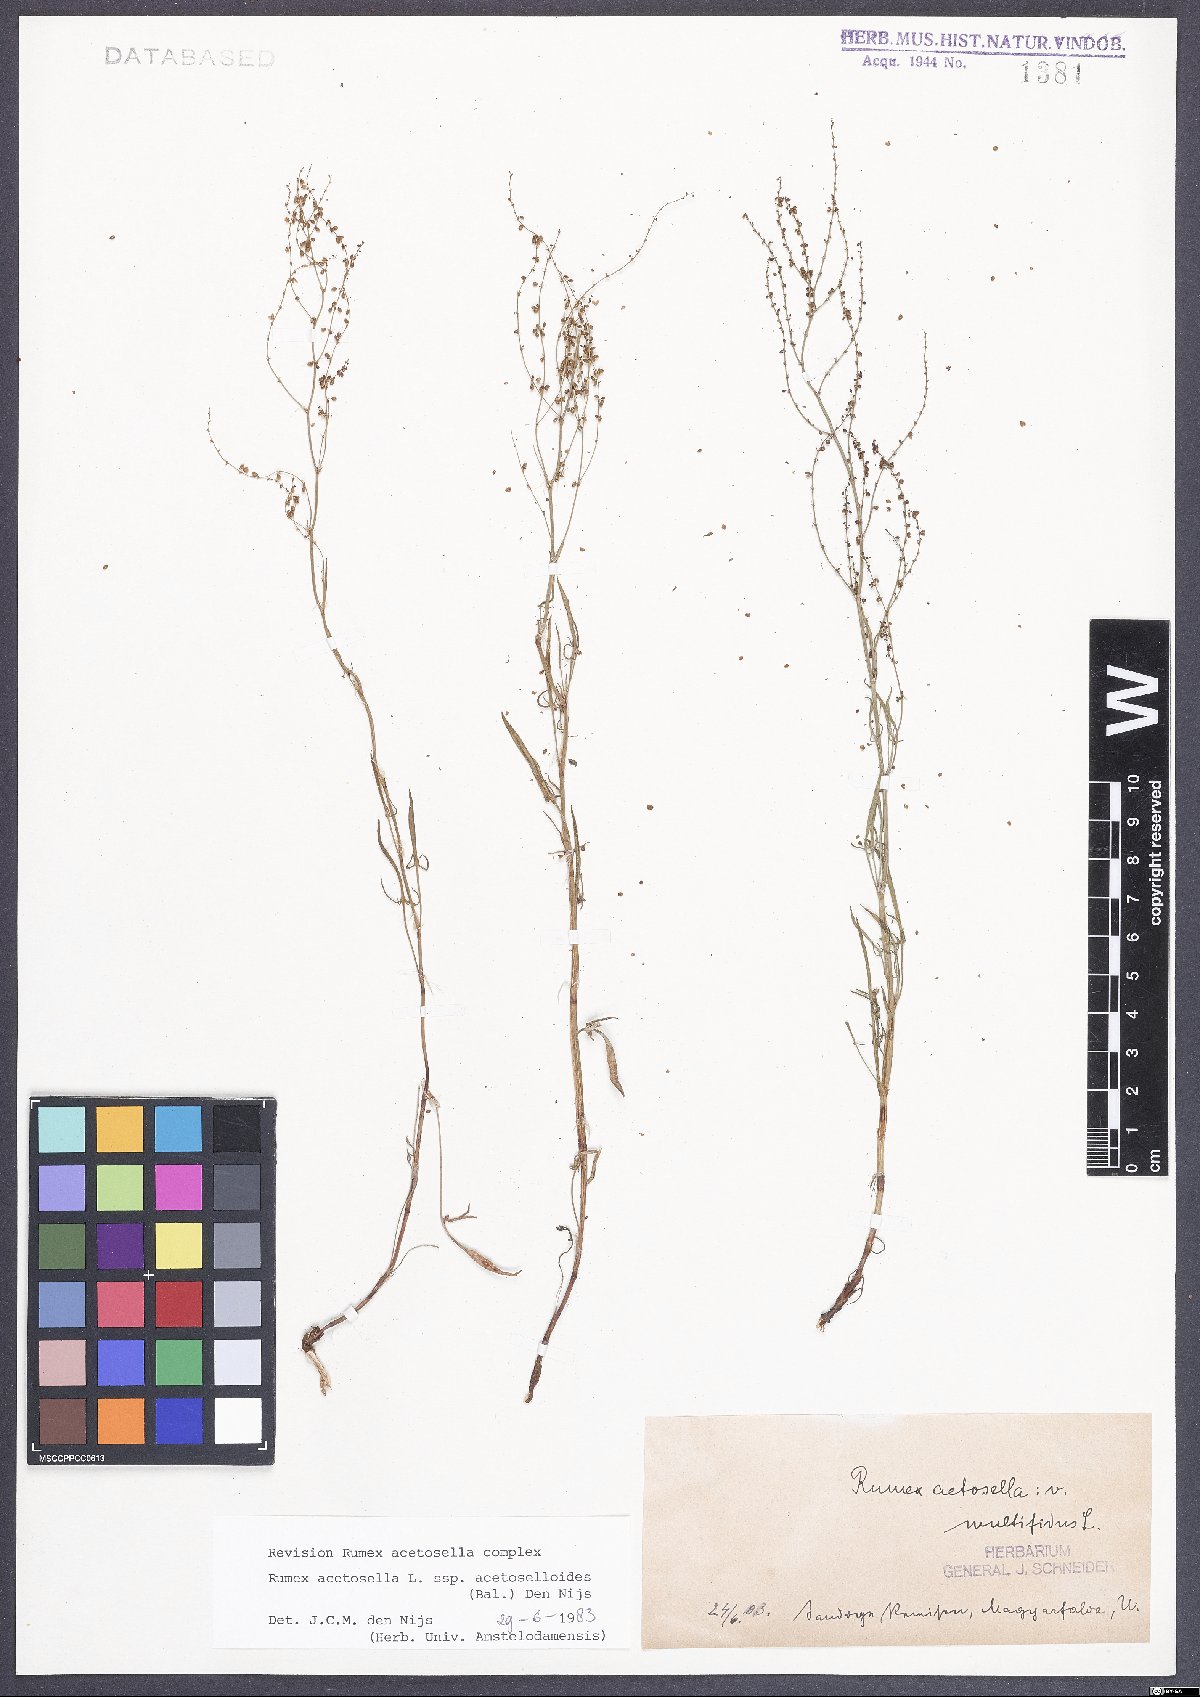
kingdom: Plantae
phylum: Tracheophyta
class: Magnoliopsida
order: Caryophyllales
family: Polygonaceae
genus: Rumex
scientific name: Rumex acetosella
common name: Common sheep sorrel
